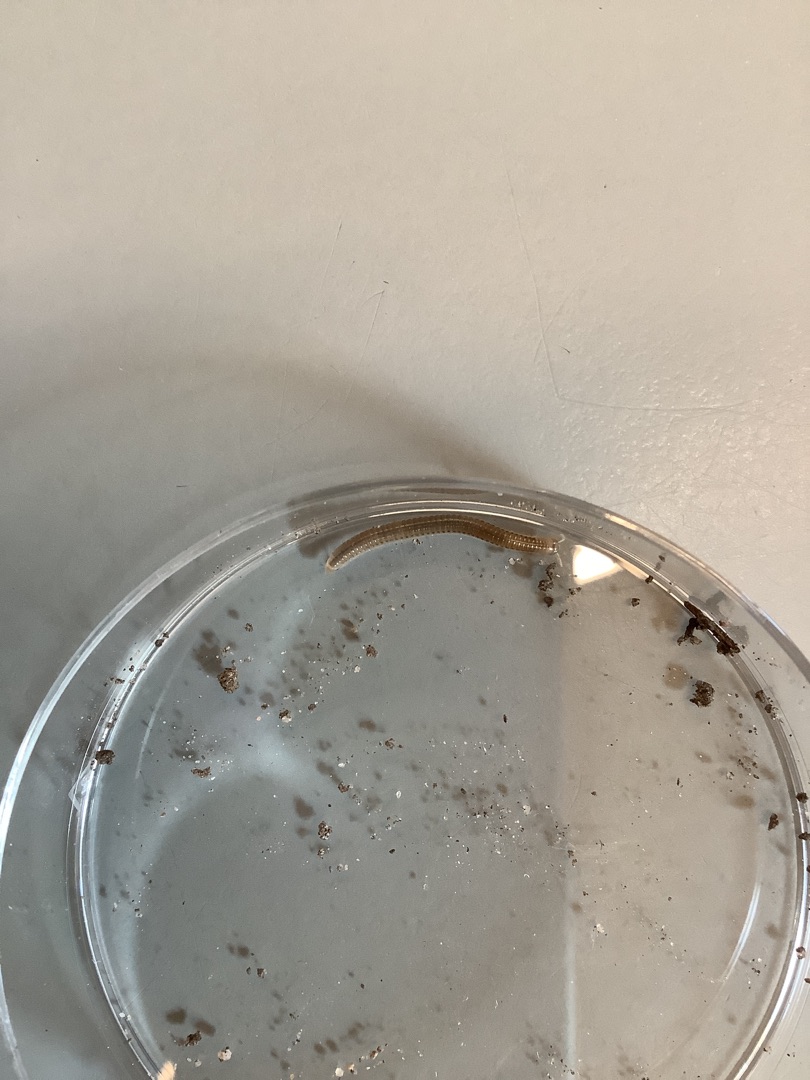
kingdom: Animalia
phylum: Arthropoda
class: Diplopoda
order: Julida
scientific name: Julida
